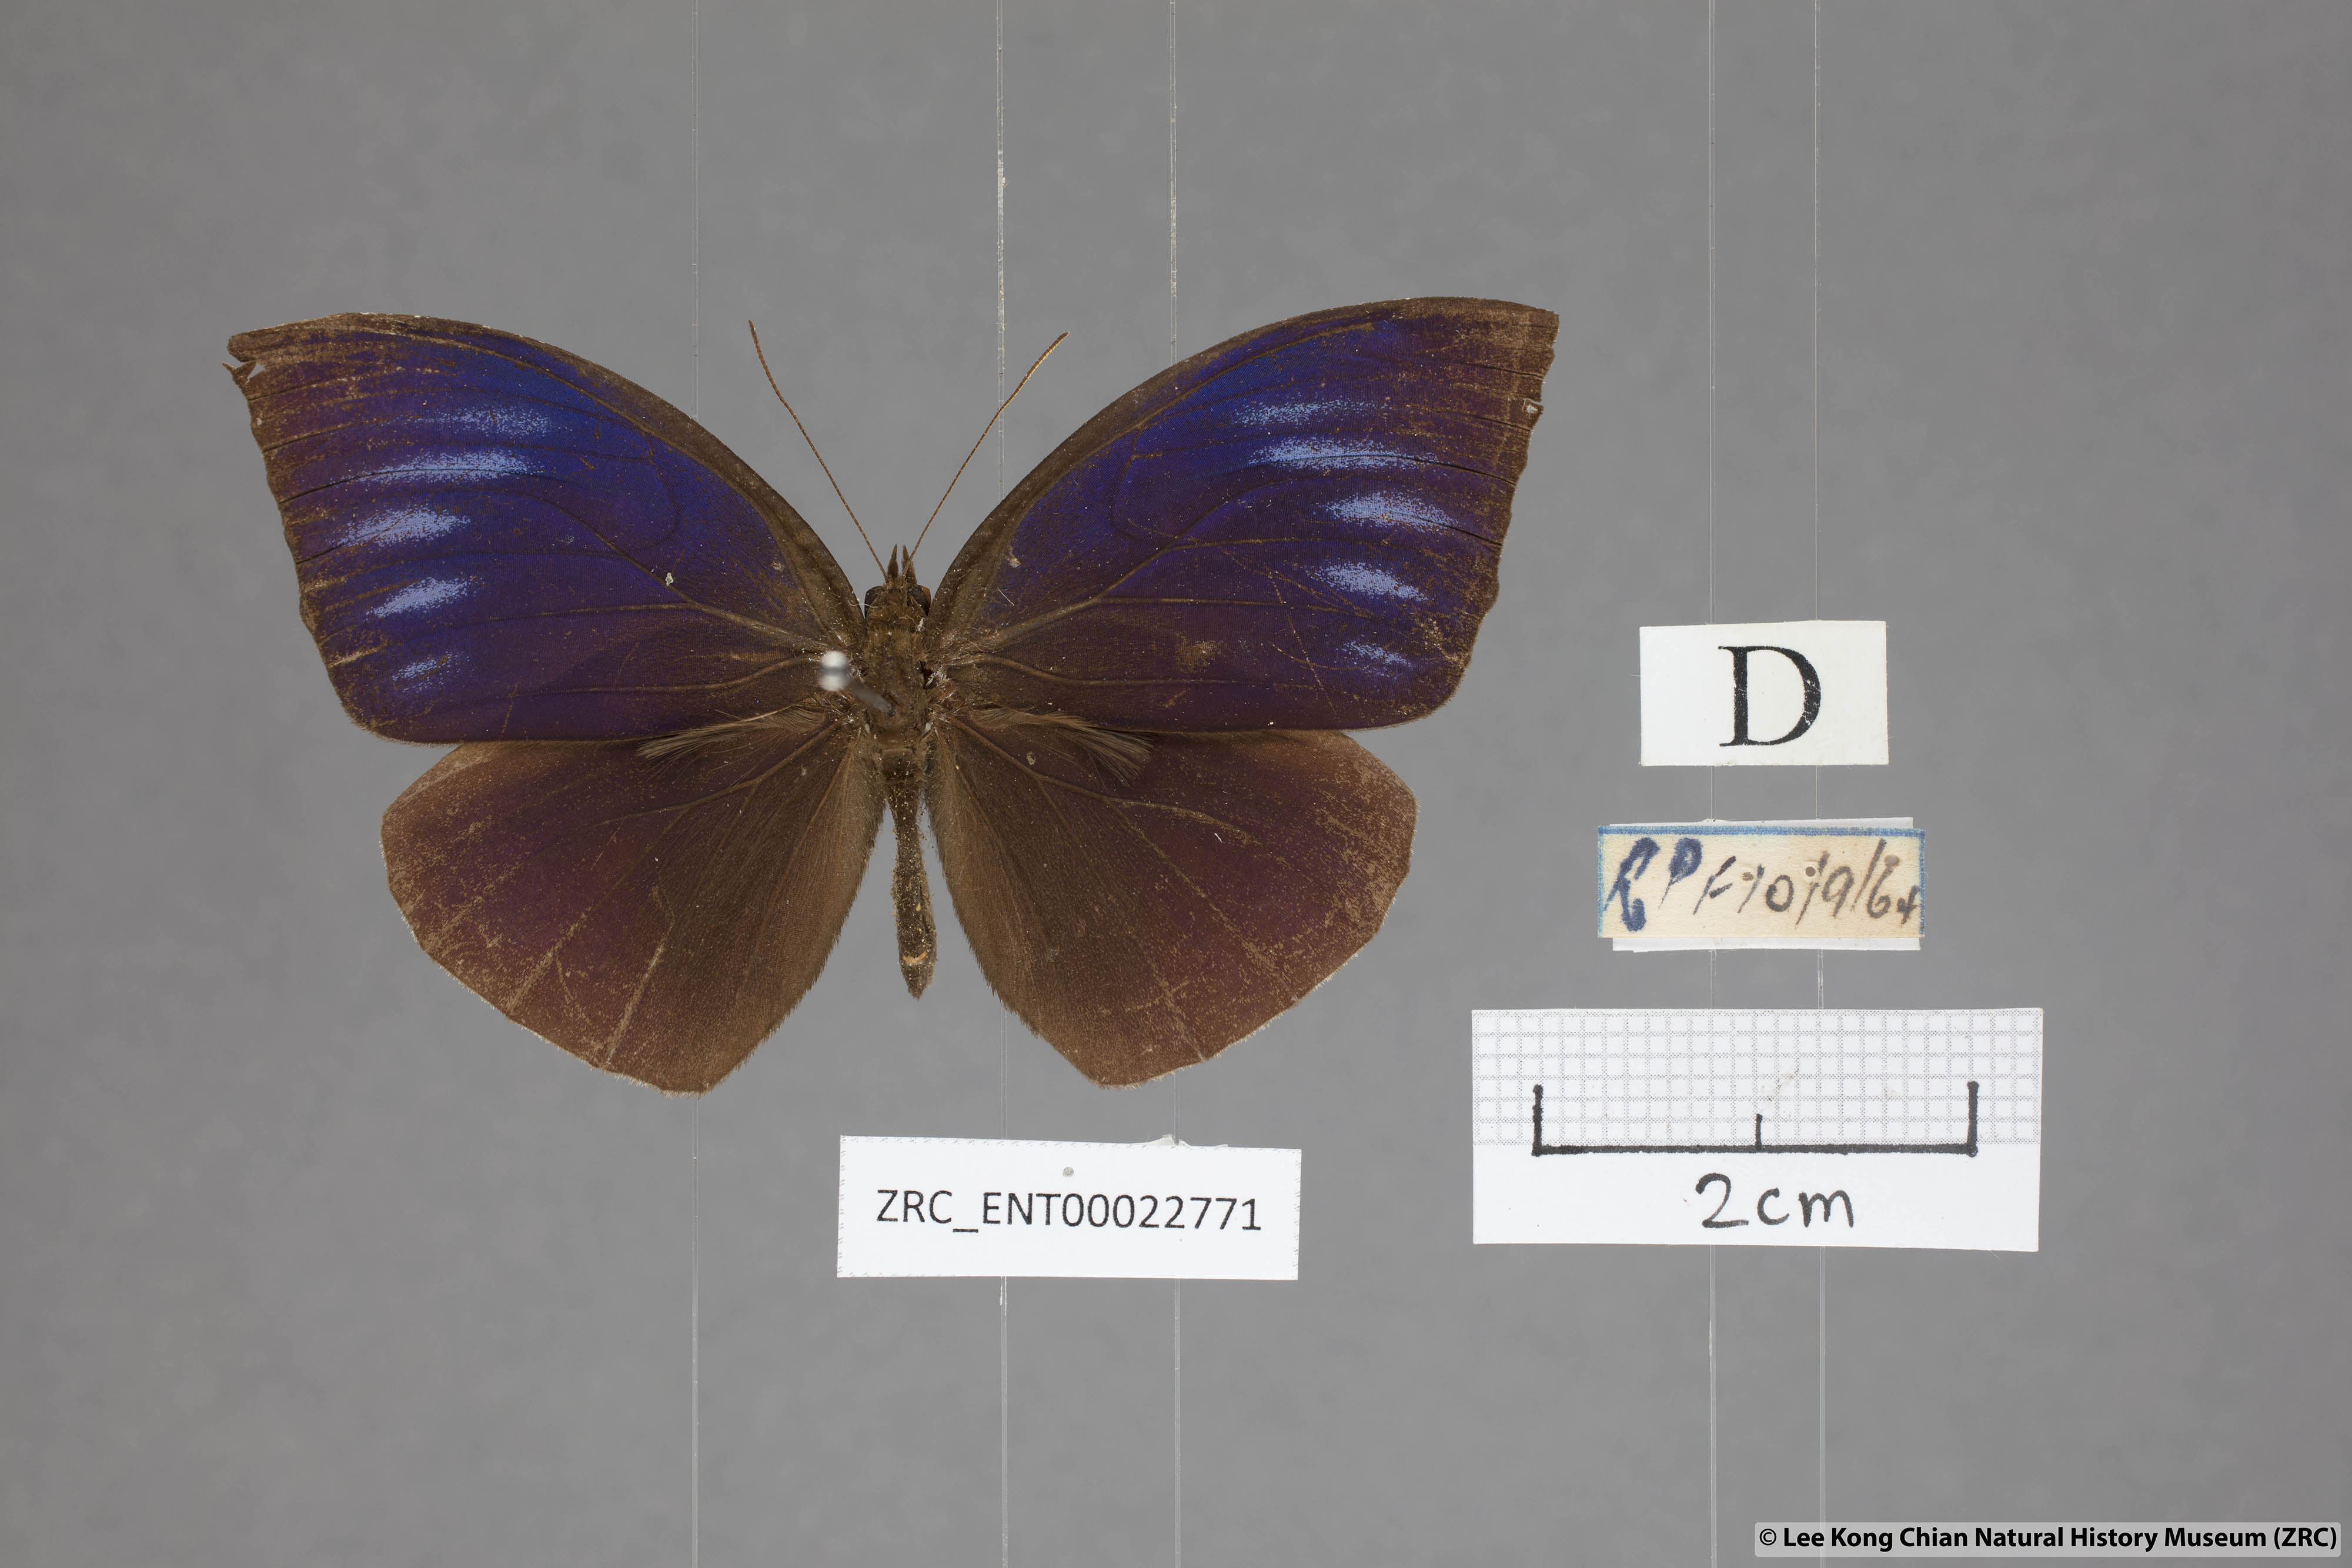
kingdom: Animalia
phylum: Arthropoda
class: Insecta
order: Lepidoptera
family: Nymphalidae
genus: Elymnias
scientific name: Elymnias penanga
